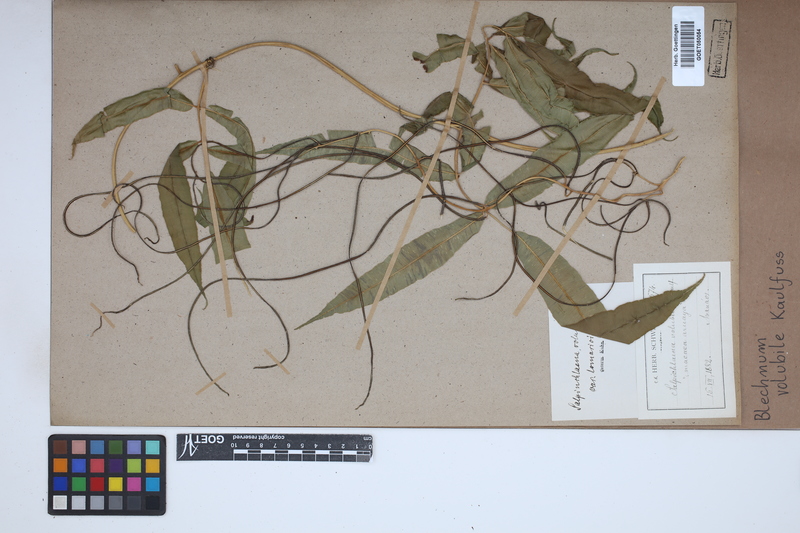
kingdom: Plantae
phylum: Tracheophyta
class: Polypodiopsida
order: Polypodiales
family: Blechnaceae
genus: Salpichlaena
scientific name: Salpichlaena volubilis
